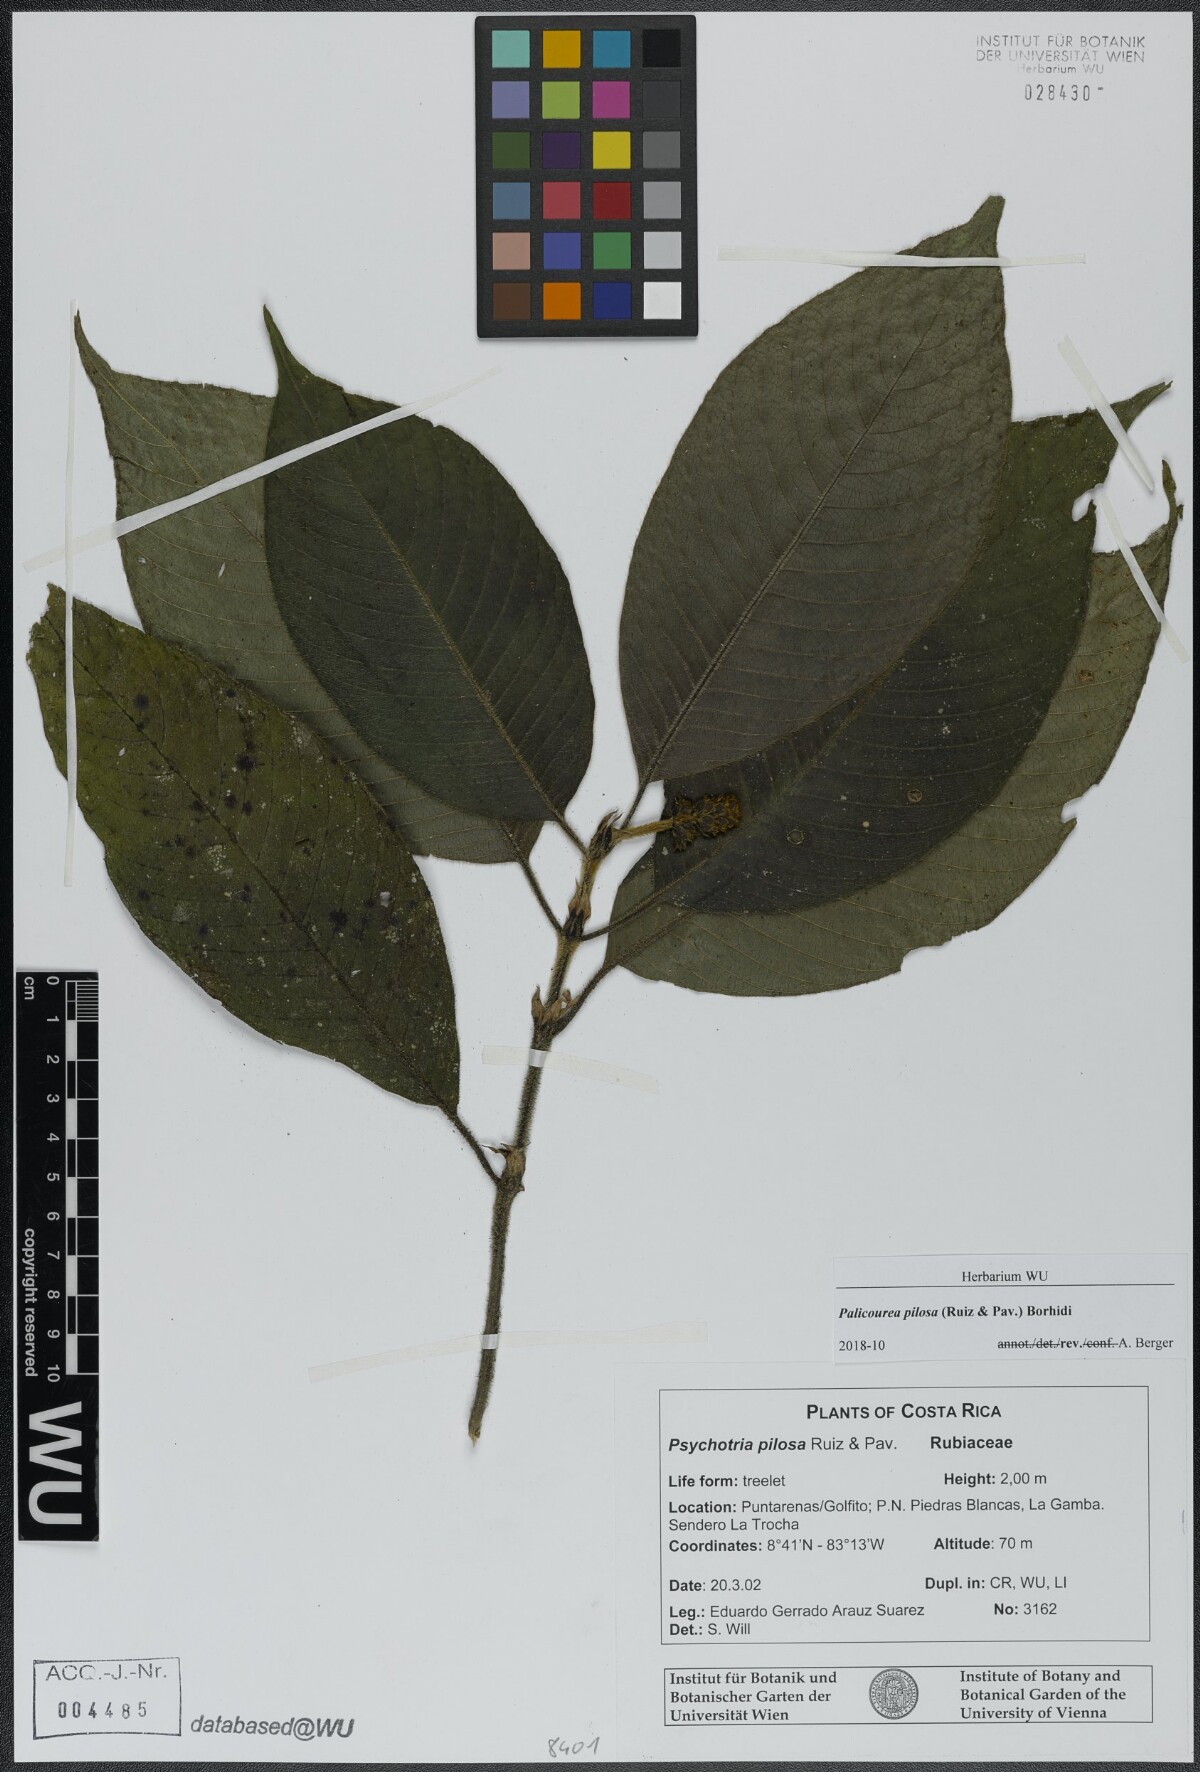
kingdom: Plantae
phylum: Tracheophyta
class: Magnoliopsida
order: Gentianales
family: Rubiaceae
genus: Palicourea
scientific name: Palicourea pilosa
